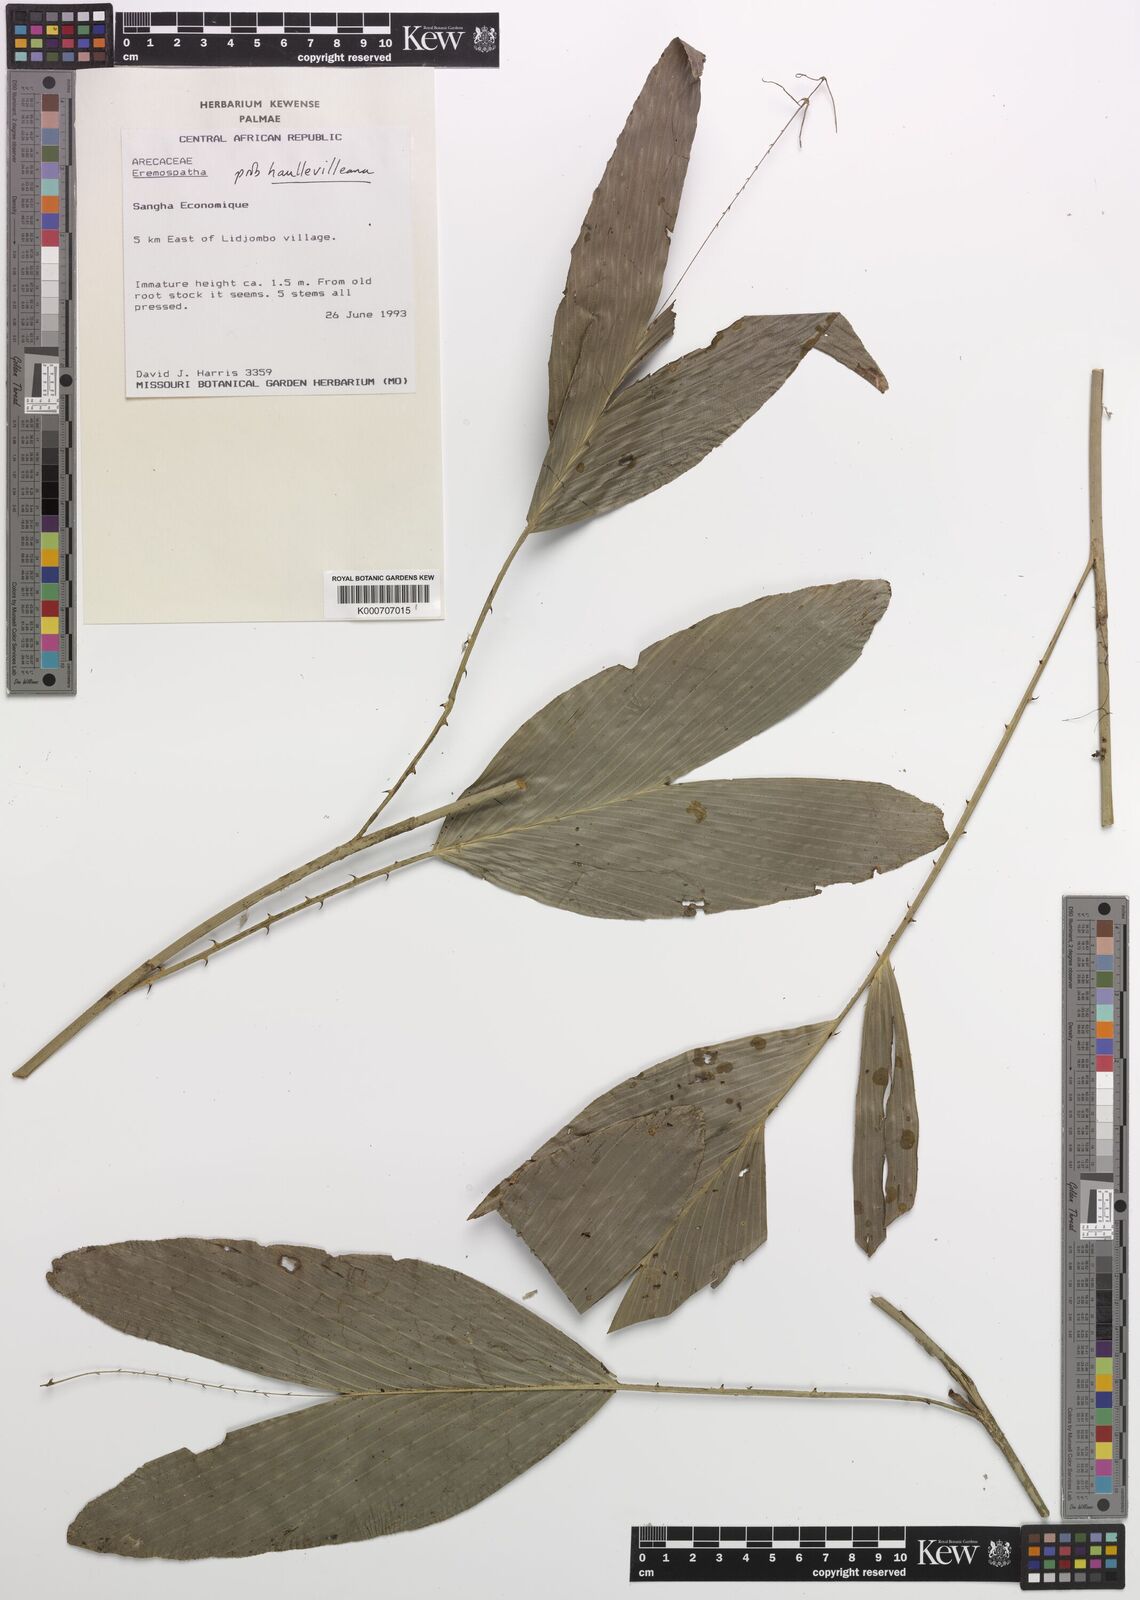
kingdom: Plantae
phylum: Tracheophyta
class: Liliopsida
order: Arecales
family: Arecaceae
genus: Eremospatha
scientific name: Eremospatha haullevilleana
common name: Rattan
